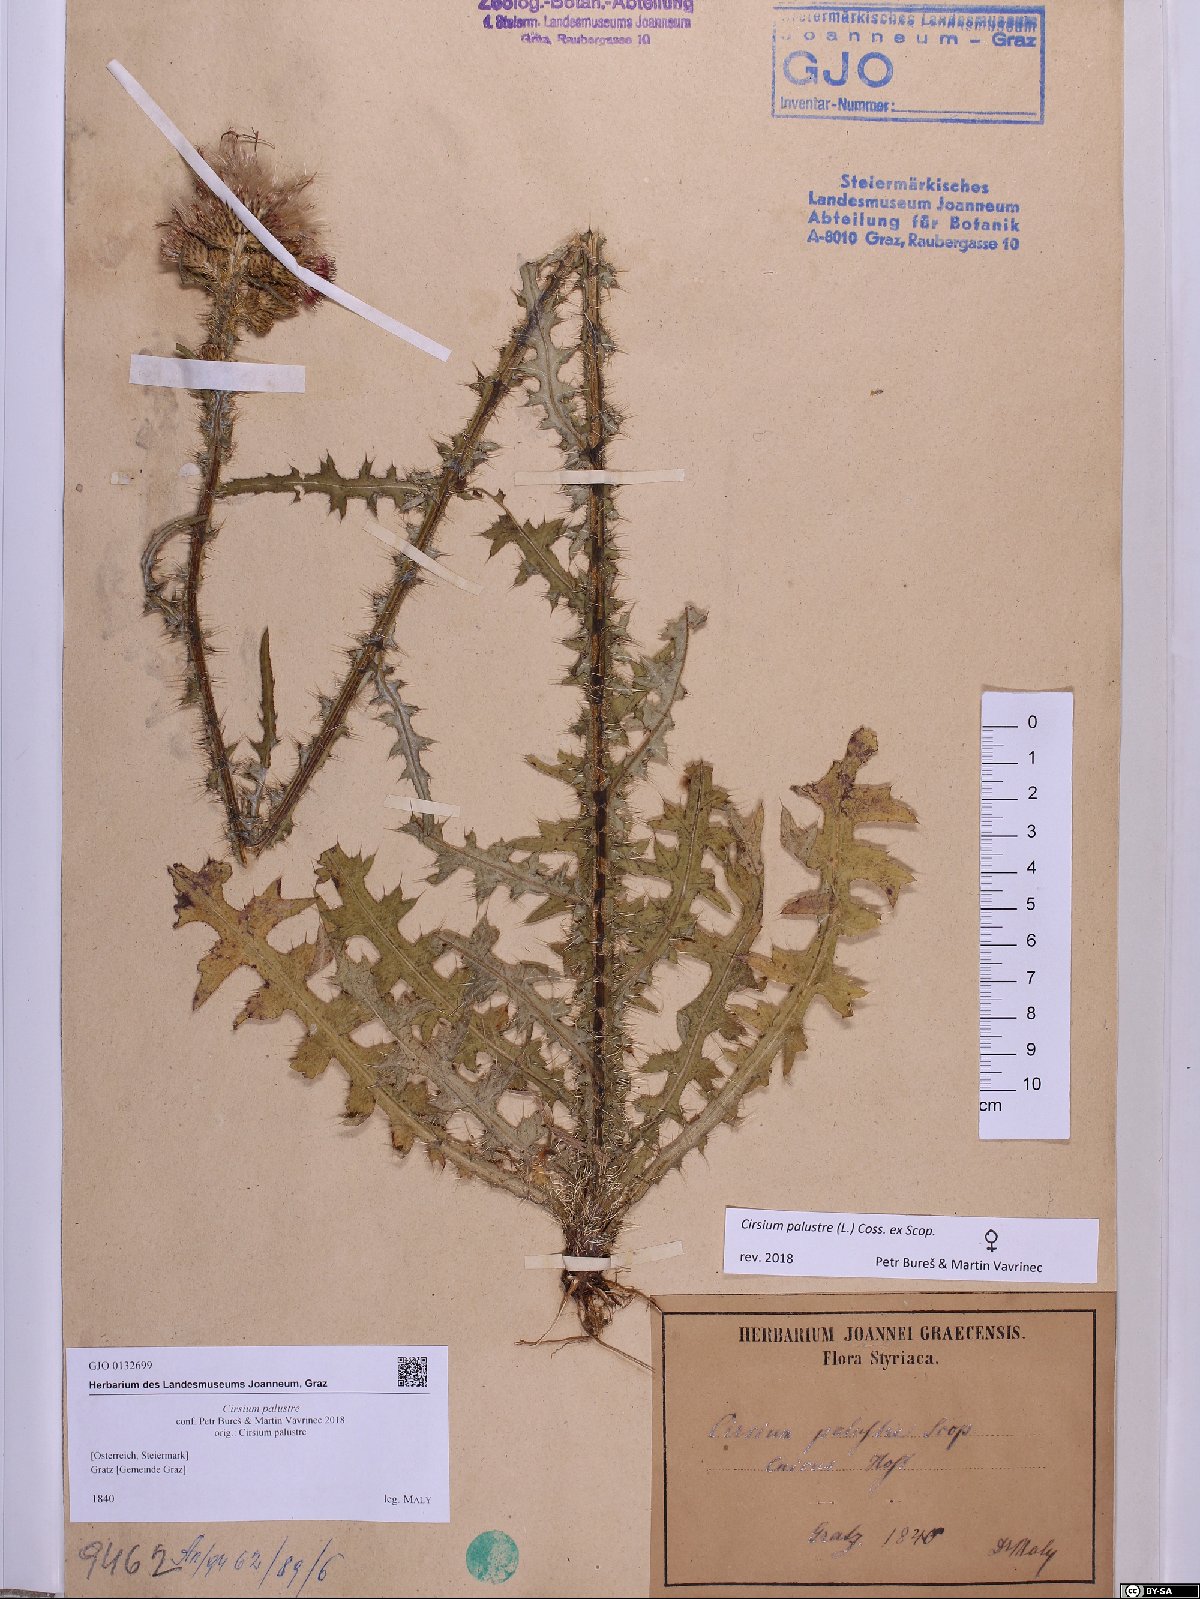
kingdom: Plantae
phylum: Tracheophyta
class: Magnoliopsida
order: Asterales
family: Asteraceae
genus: Cirsium
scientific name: Cirsium palustre
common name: Marsh thistle
